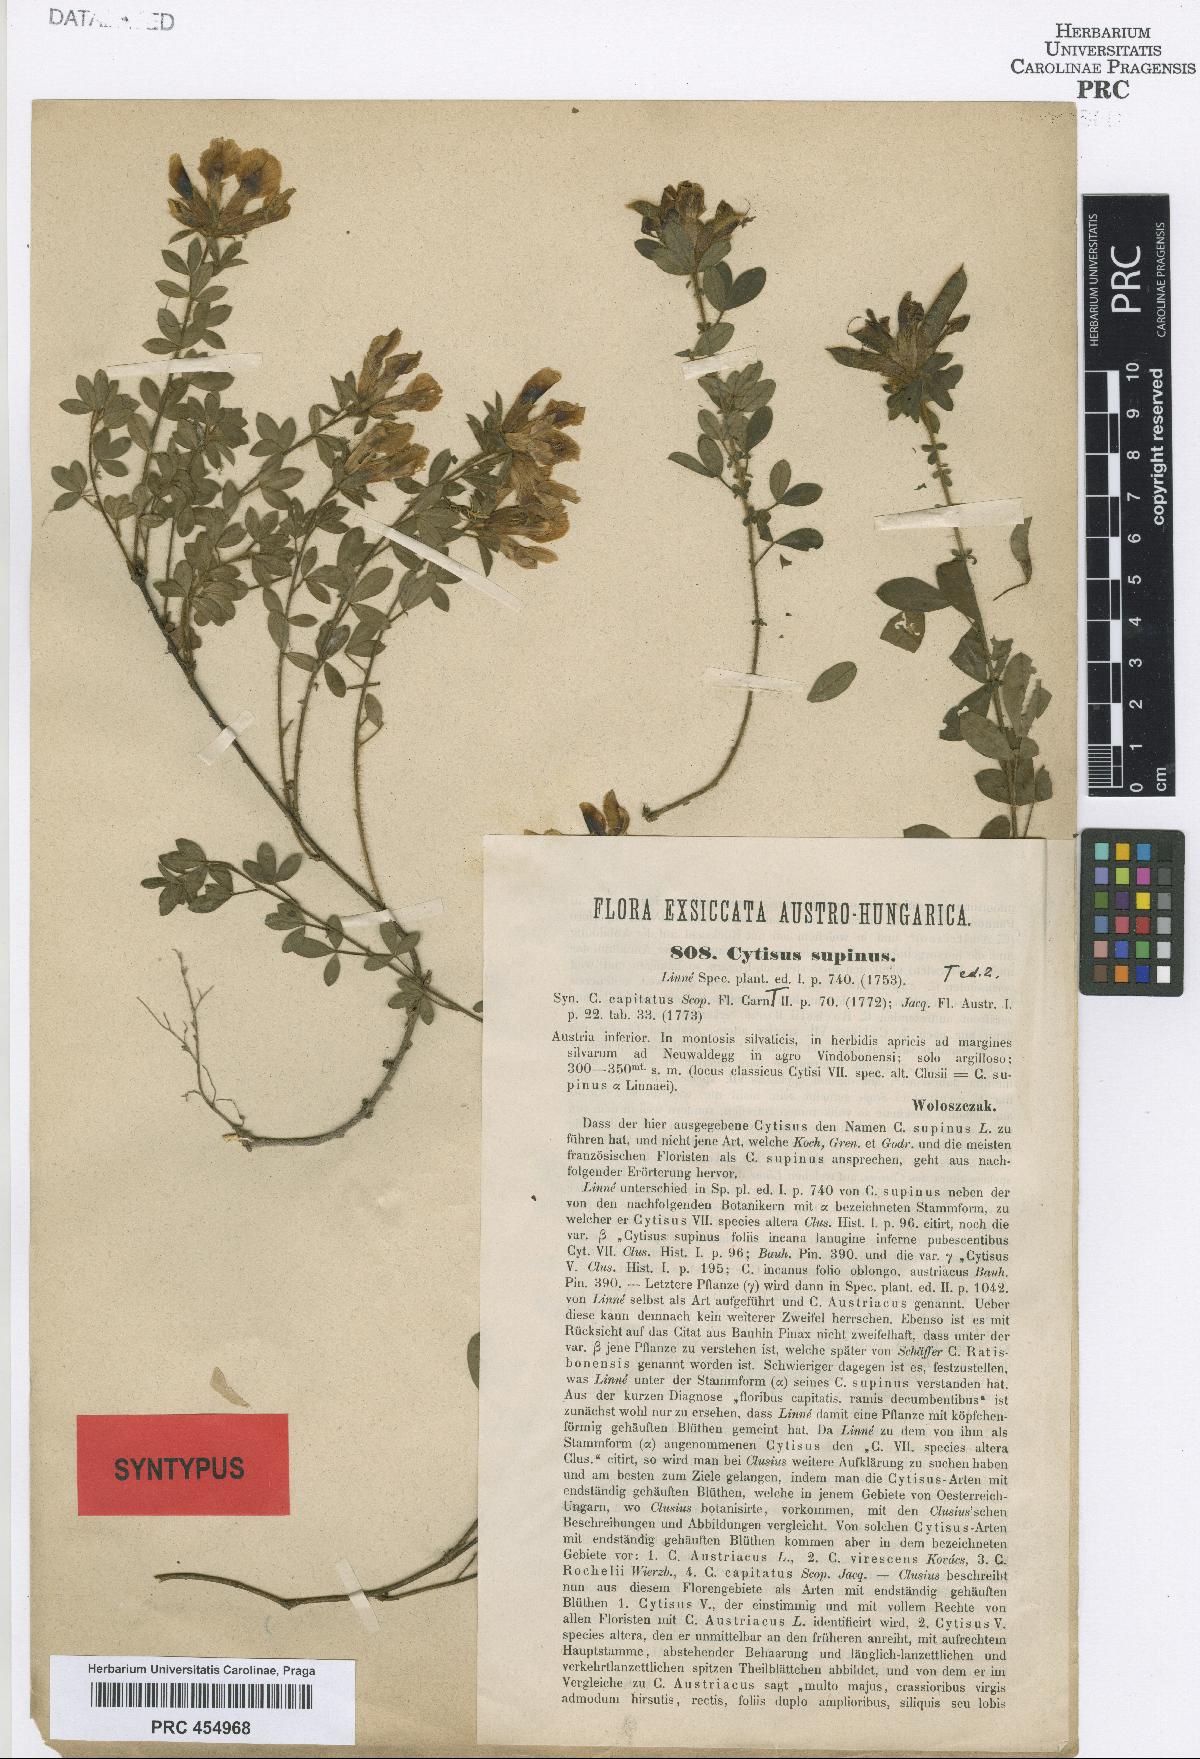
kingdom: Plantae
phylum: Tracheophyta
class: Magnoliopsida
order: Fabales
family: Fabaceae
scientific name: Fabaceae
